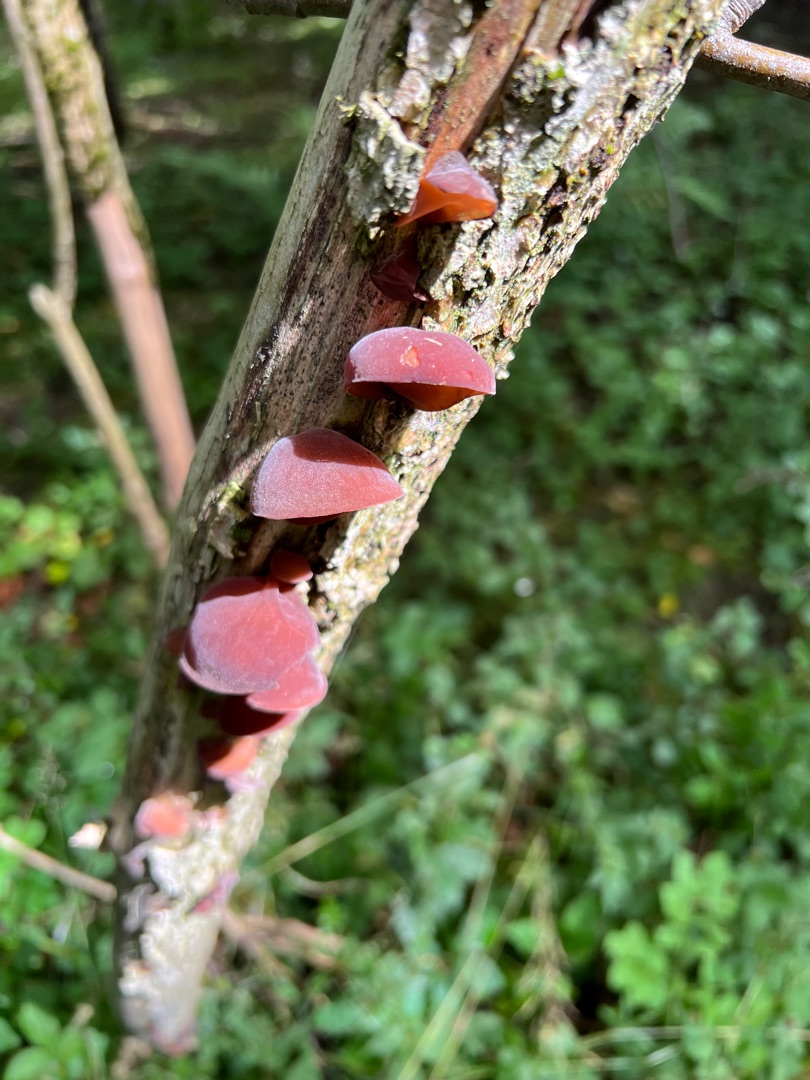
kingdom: Fungi
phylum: Basidiomycota
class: Agaricomycetes
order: Auriculariales
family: Auriculariaceae
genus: Auricularia
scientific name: Auricularia auricula-judae
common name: Almindelig judasøre
